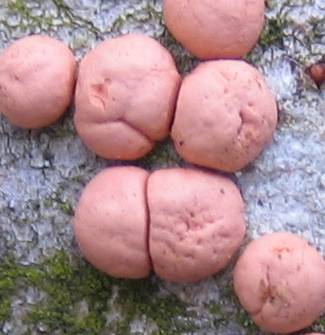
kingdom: Fungi
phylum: Ascomycota
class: Sordariomycetes
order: Hypocreales
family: Nectriaceae
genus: Nectria
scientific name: Nectria cinnabarina
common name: almindelig cinnobersvamp
